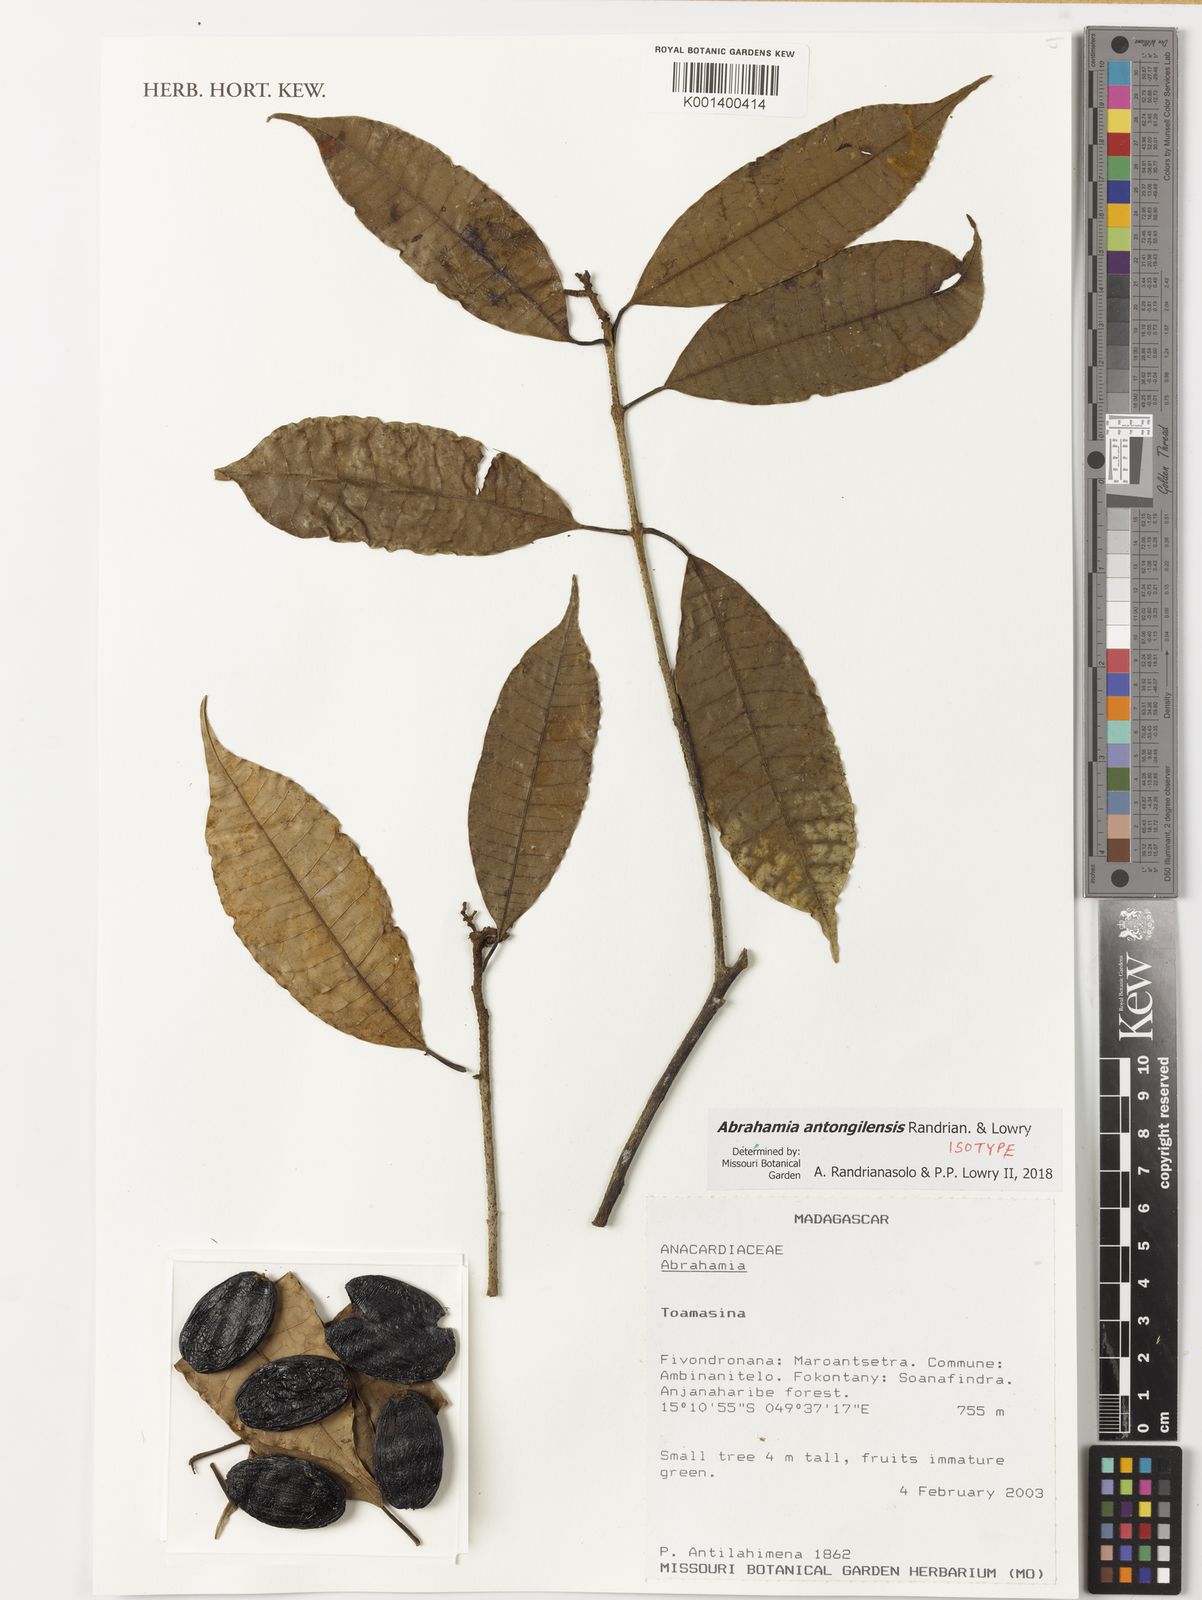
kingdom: Plantae
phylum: Tracheophyta
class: Magnoliopsida
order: Sapindales
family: Anacardiaceae
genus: Abrahamia
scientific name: Abrahamia antongilensis
